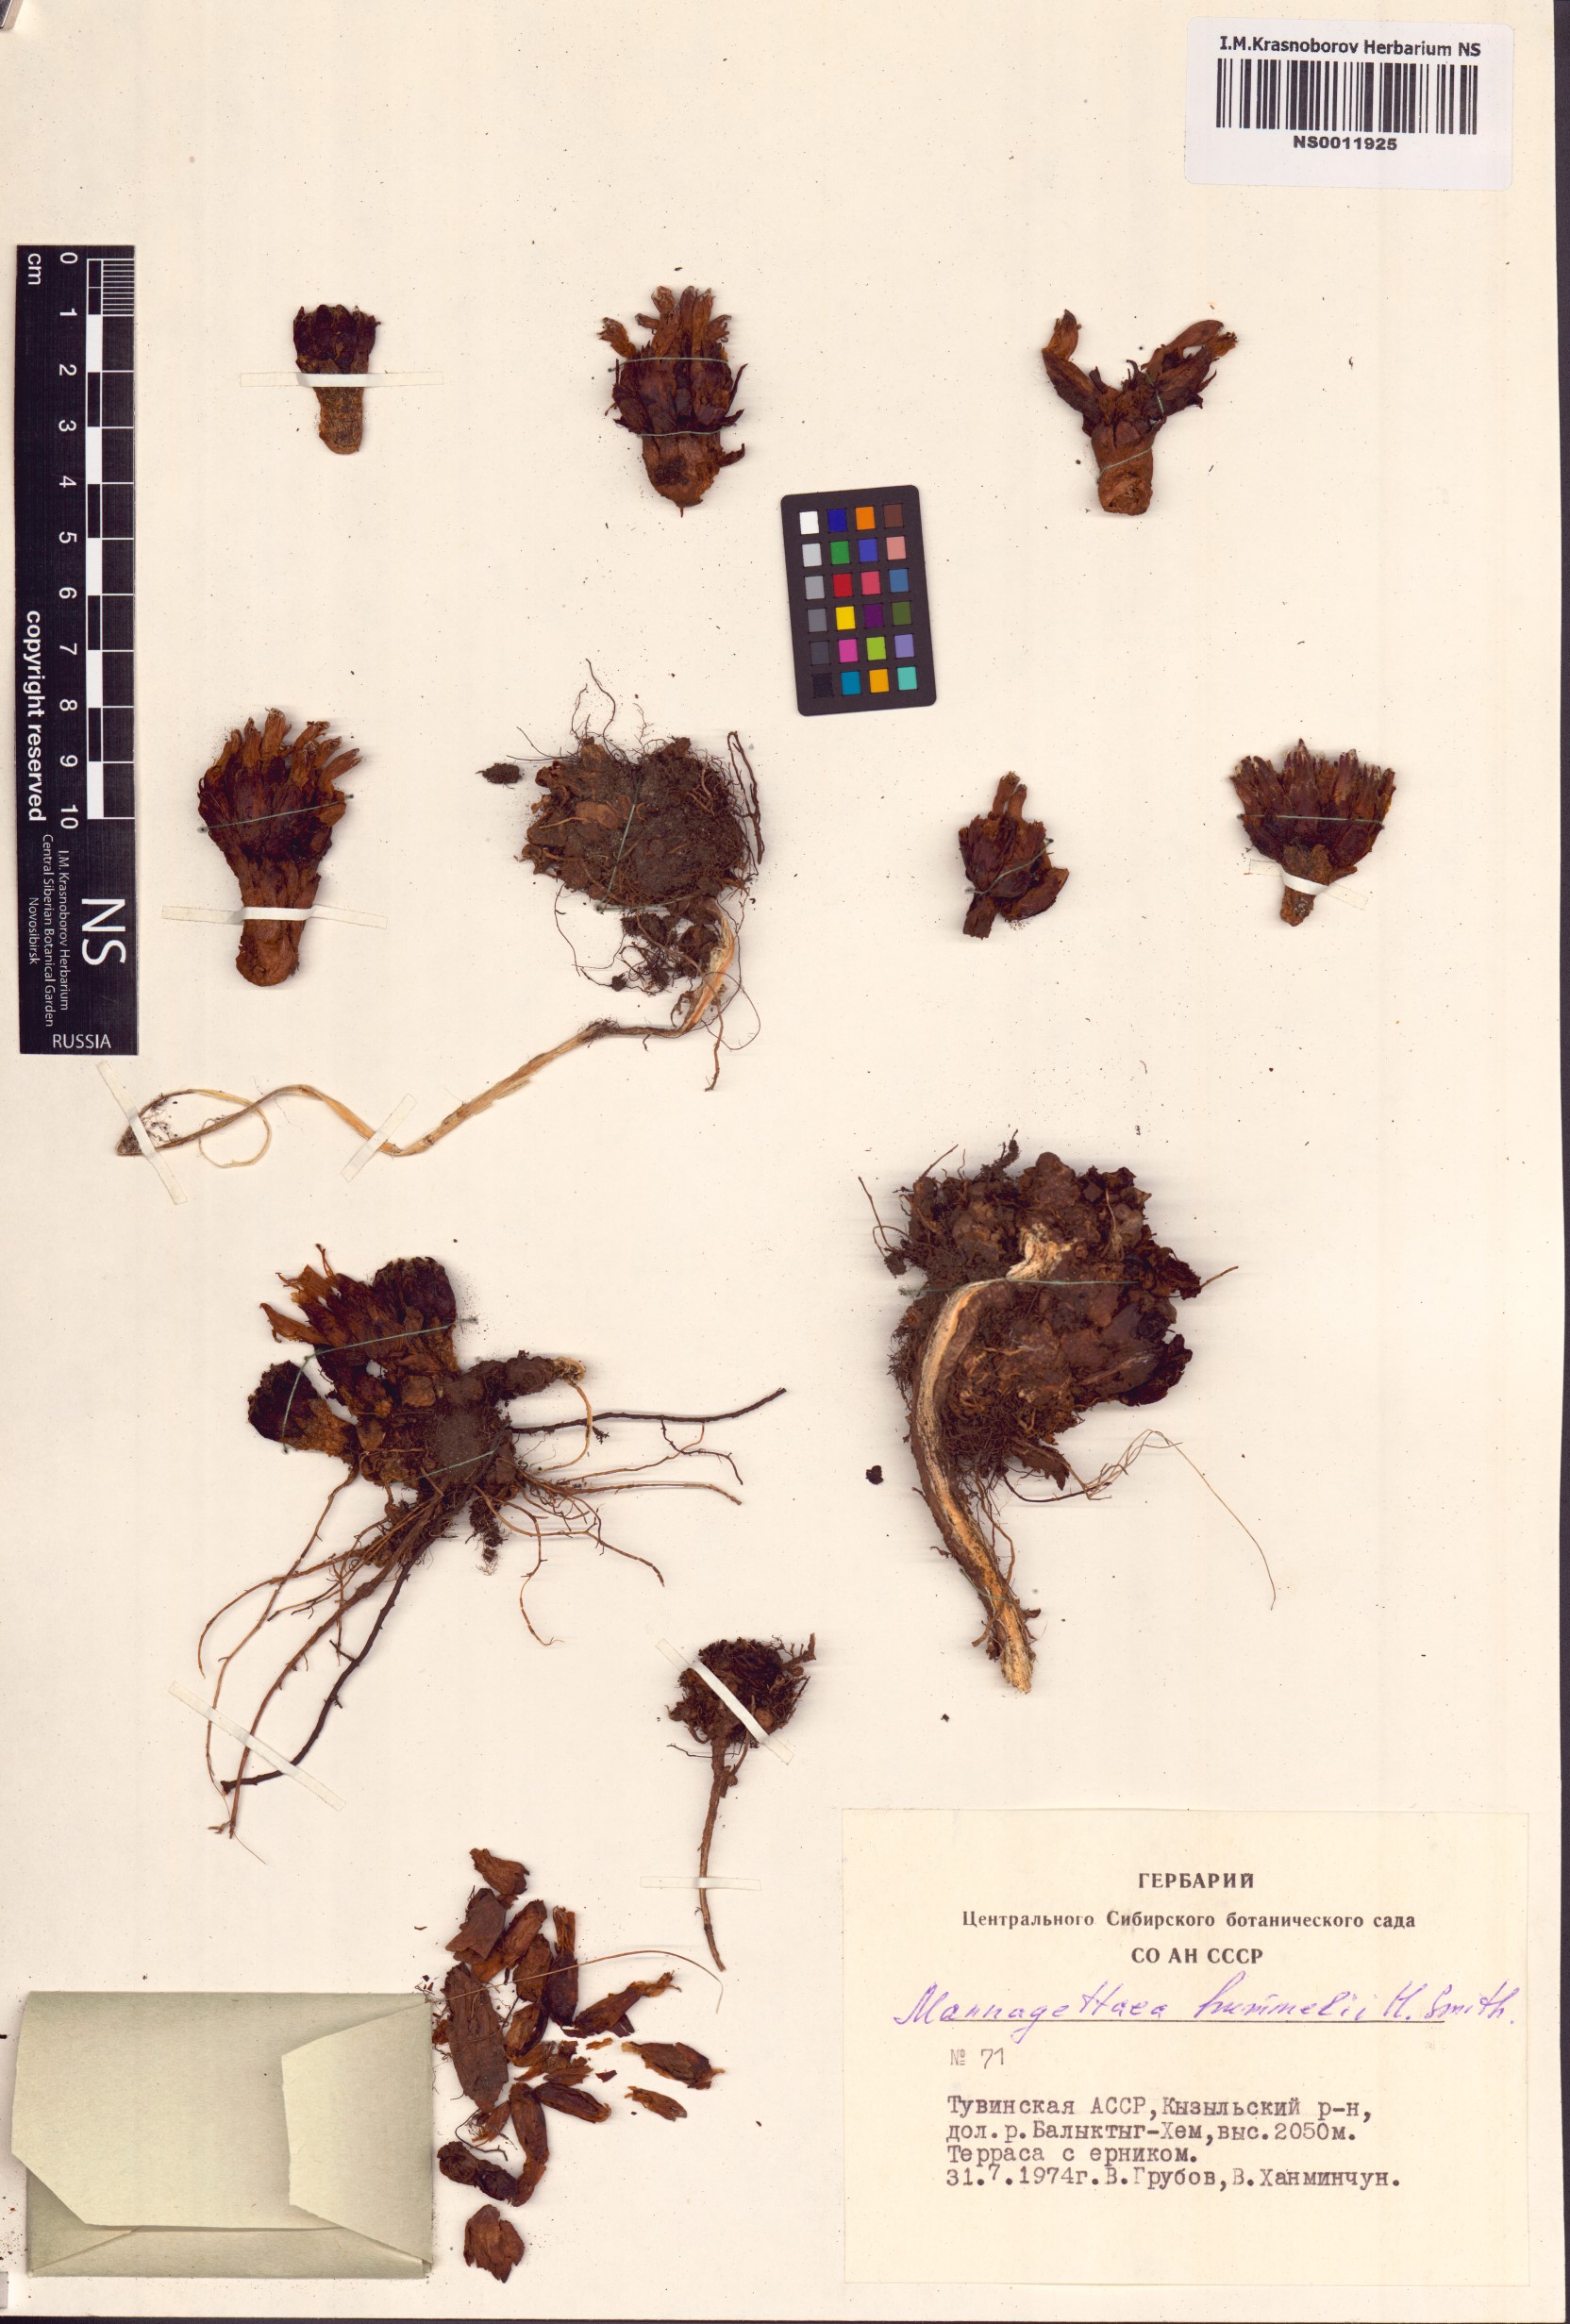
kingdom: Plantae
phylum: Tracheophyta
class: Magnoliopsida
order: Lamiales
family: Orobanchaceae
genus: Mannagettaea
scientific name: Mannagettaea hummelii
